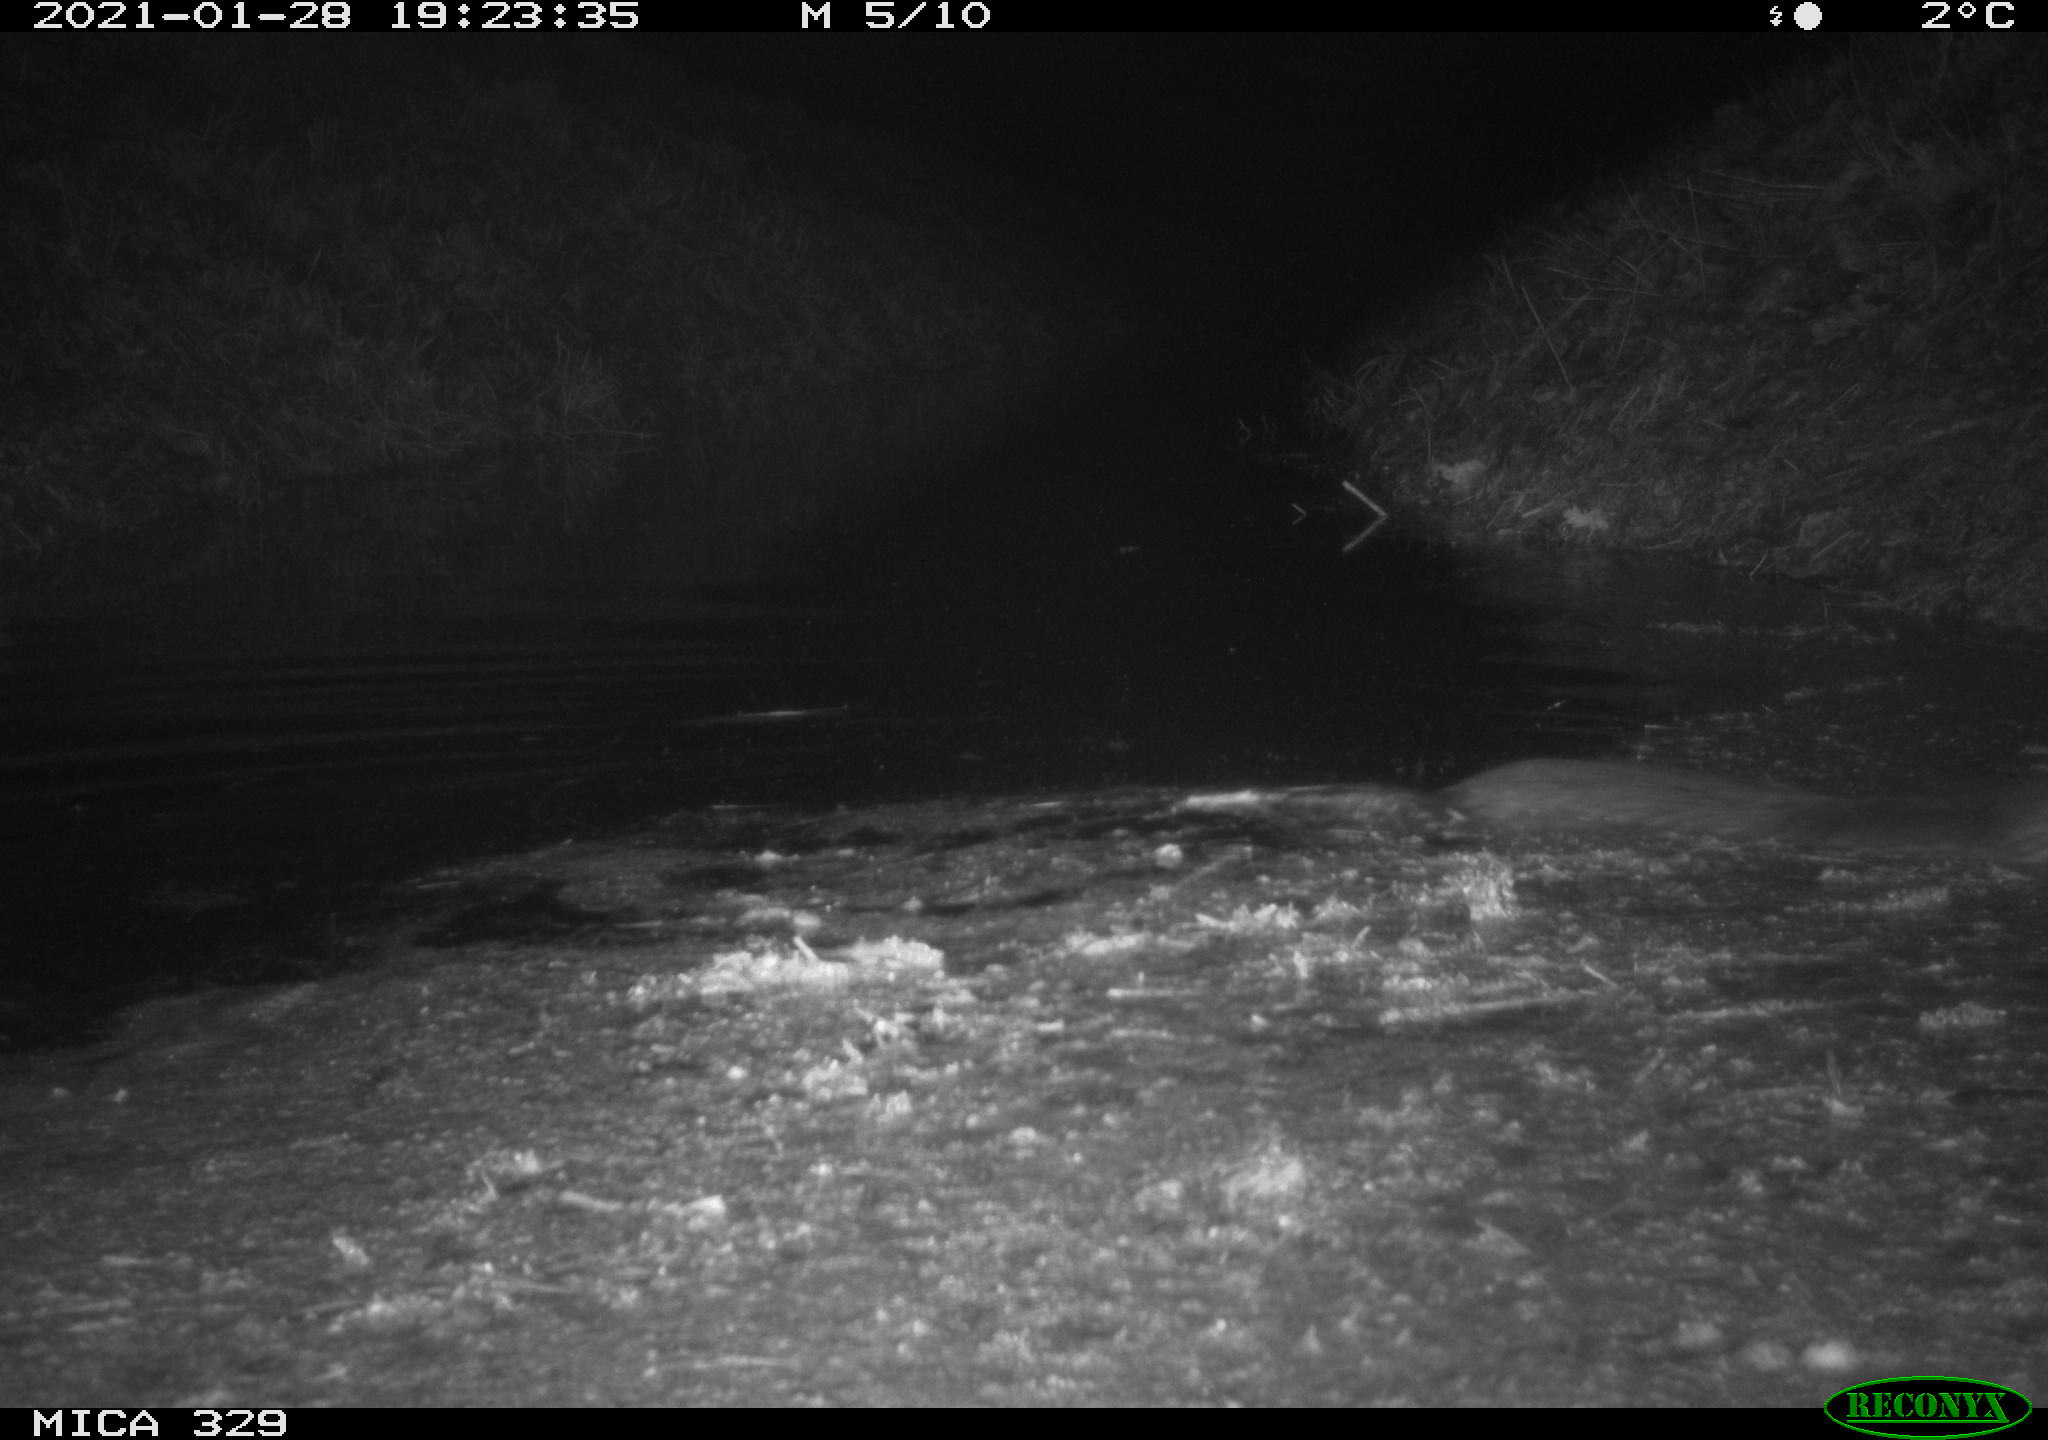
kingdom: Animalia
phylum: Chordata
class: Mammalia
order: Rodentia
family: Myocastoridae
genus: Myocastor
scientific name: Myocastor coypus
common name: Coypu
